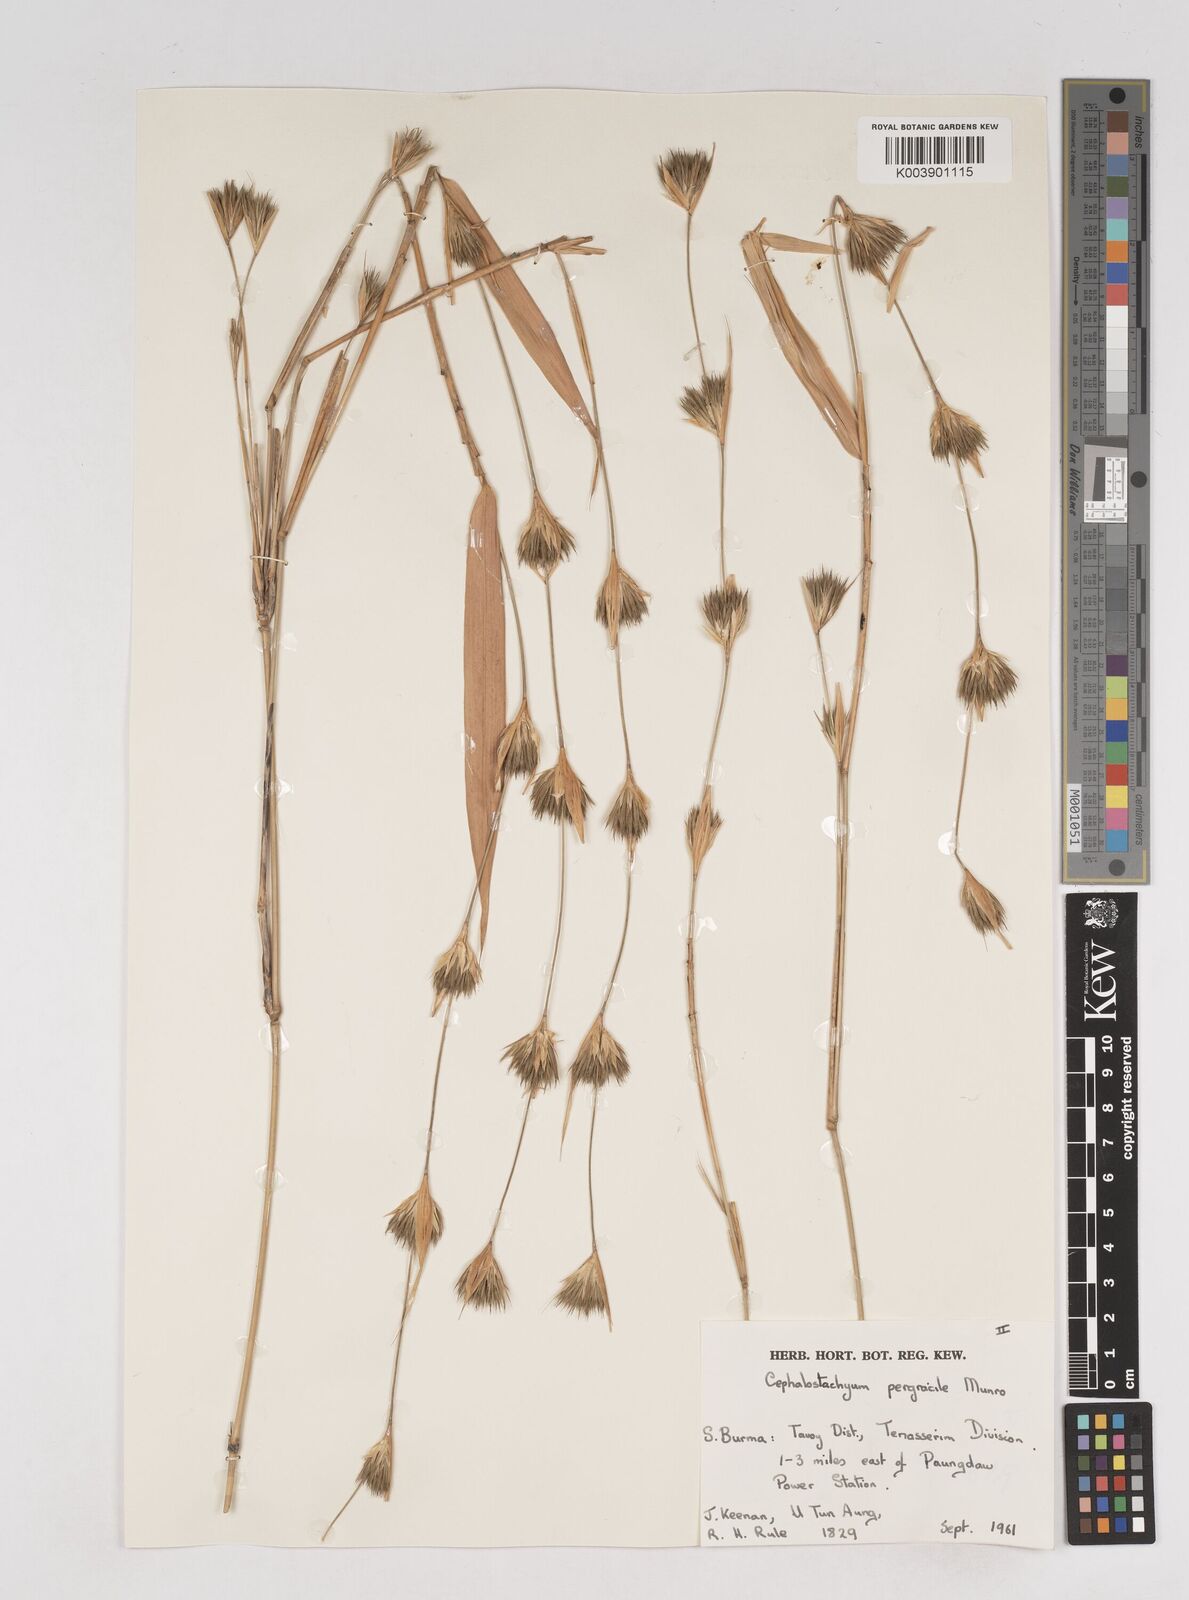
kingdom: Plantae
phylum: Tracheophyta
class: Liliopsida
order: Poales
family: Poaceae
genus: Schizostachyum
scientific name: Schizostachyum pergracile
